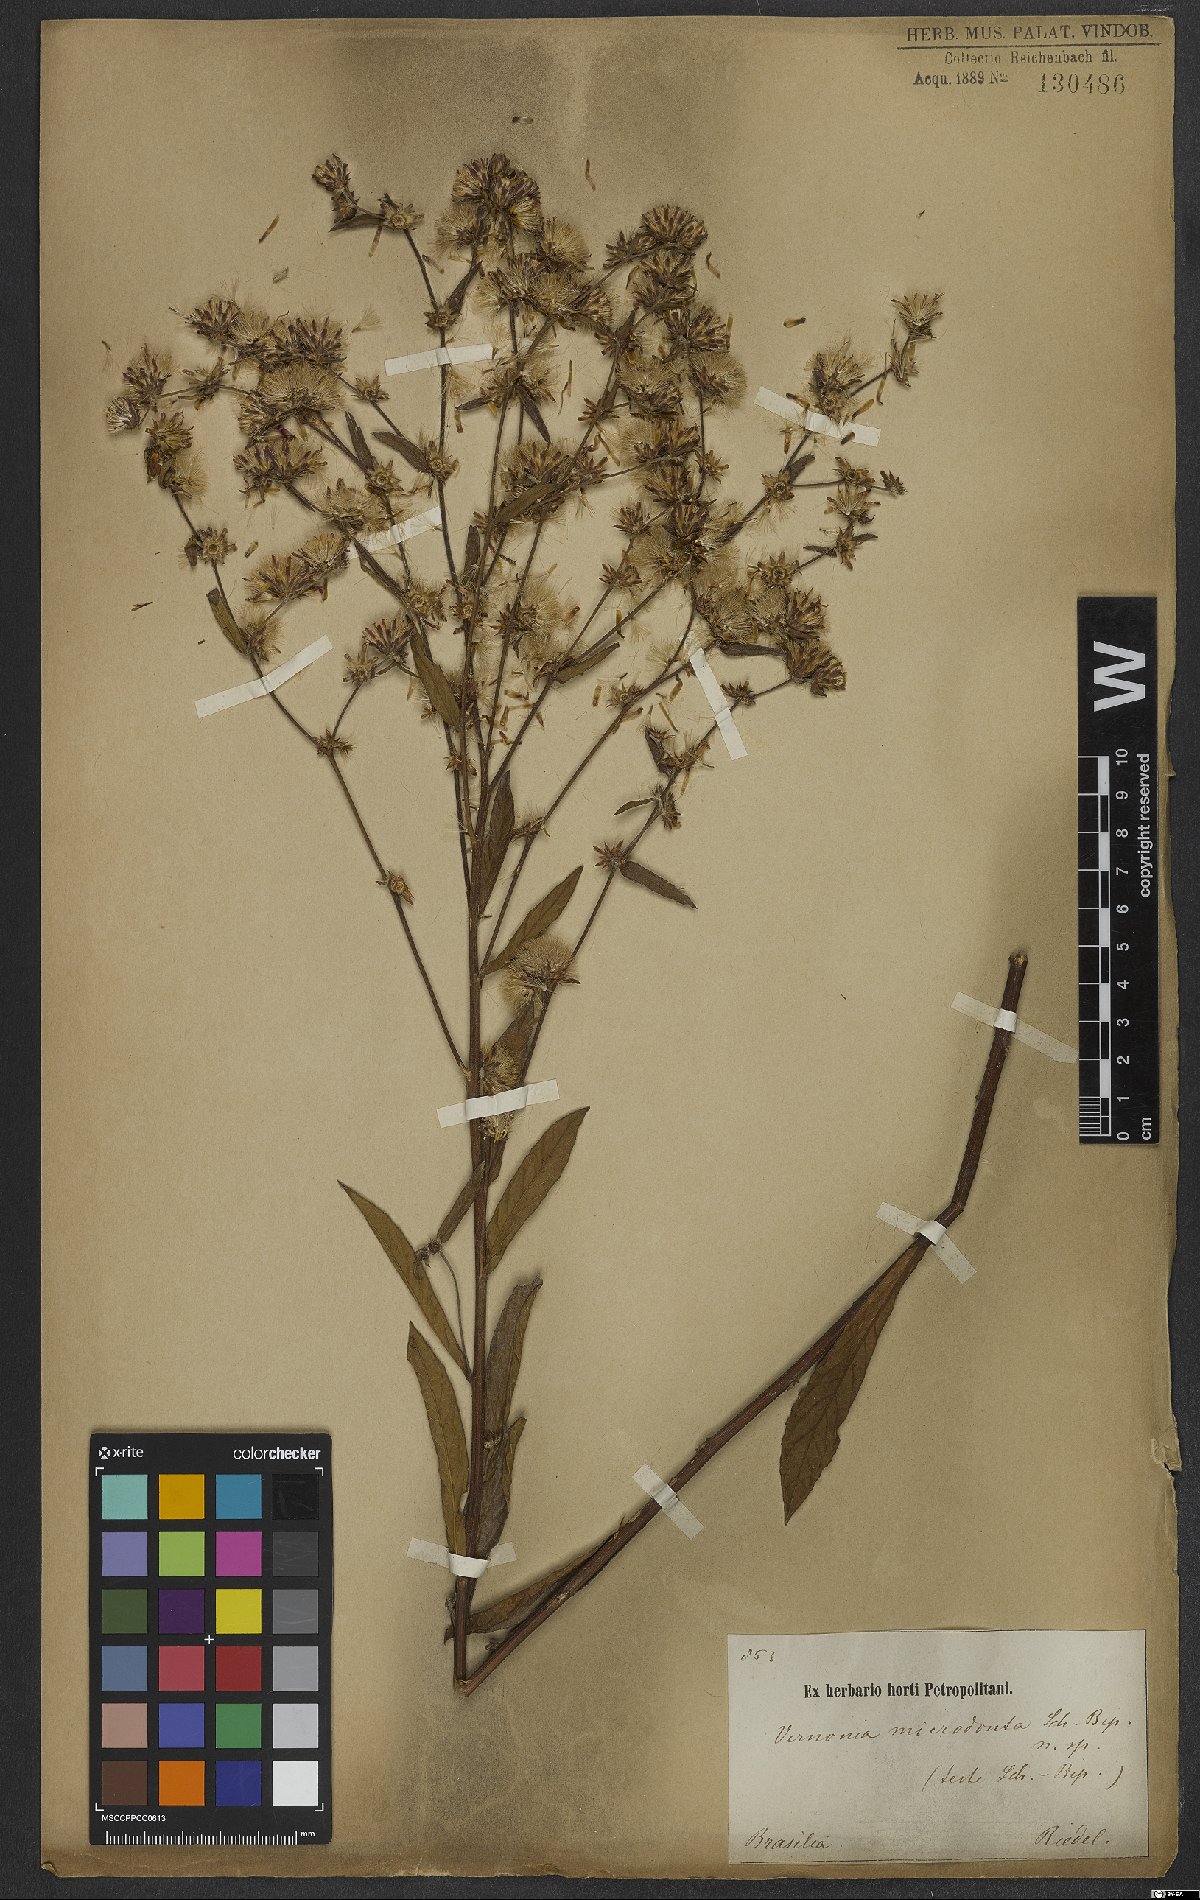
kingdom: Plantae
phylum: Tracheophyta
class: Magnoliopsida
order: Asterales
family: Asteraceae
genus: Lessingianthus
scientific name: Lessingianthus glabratus
